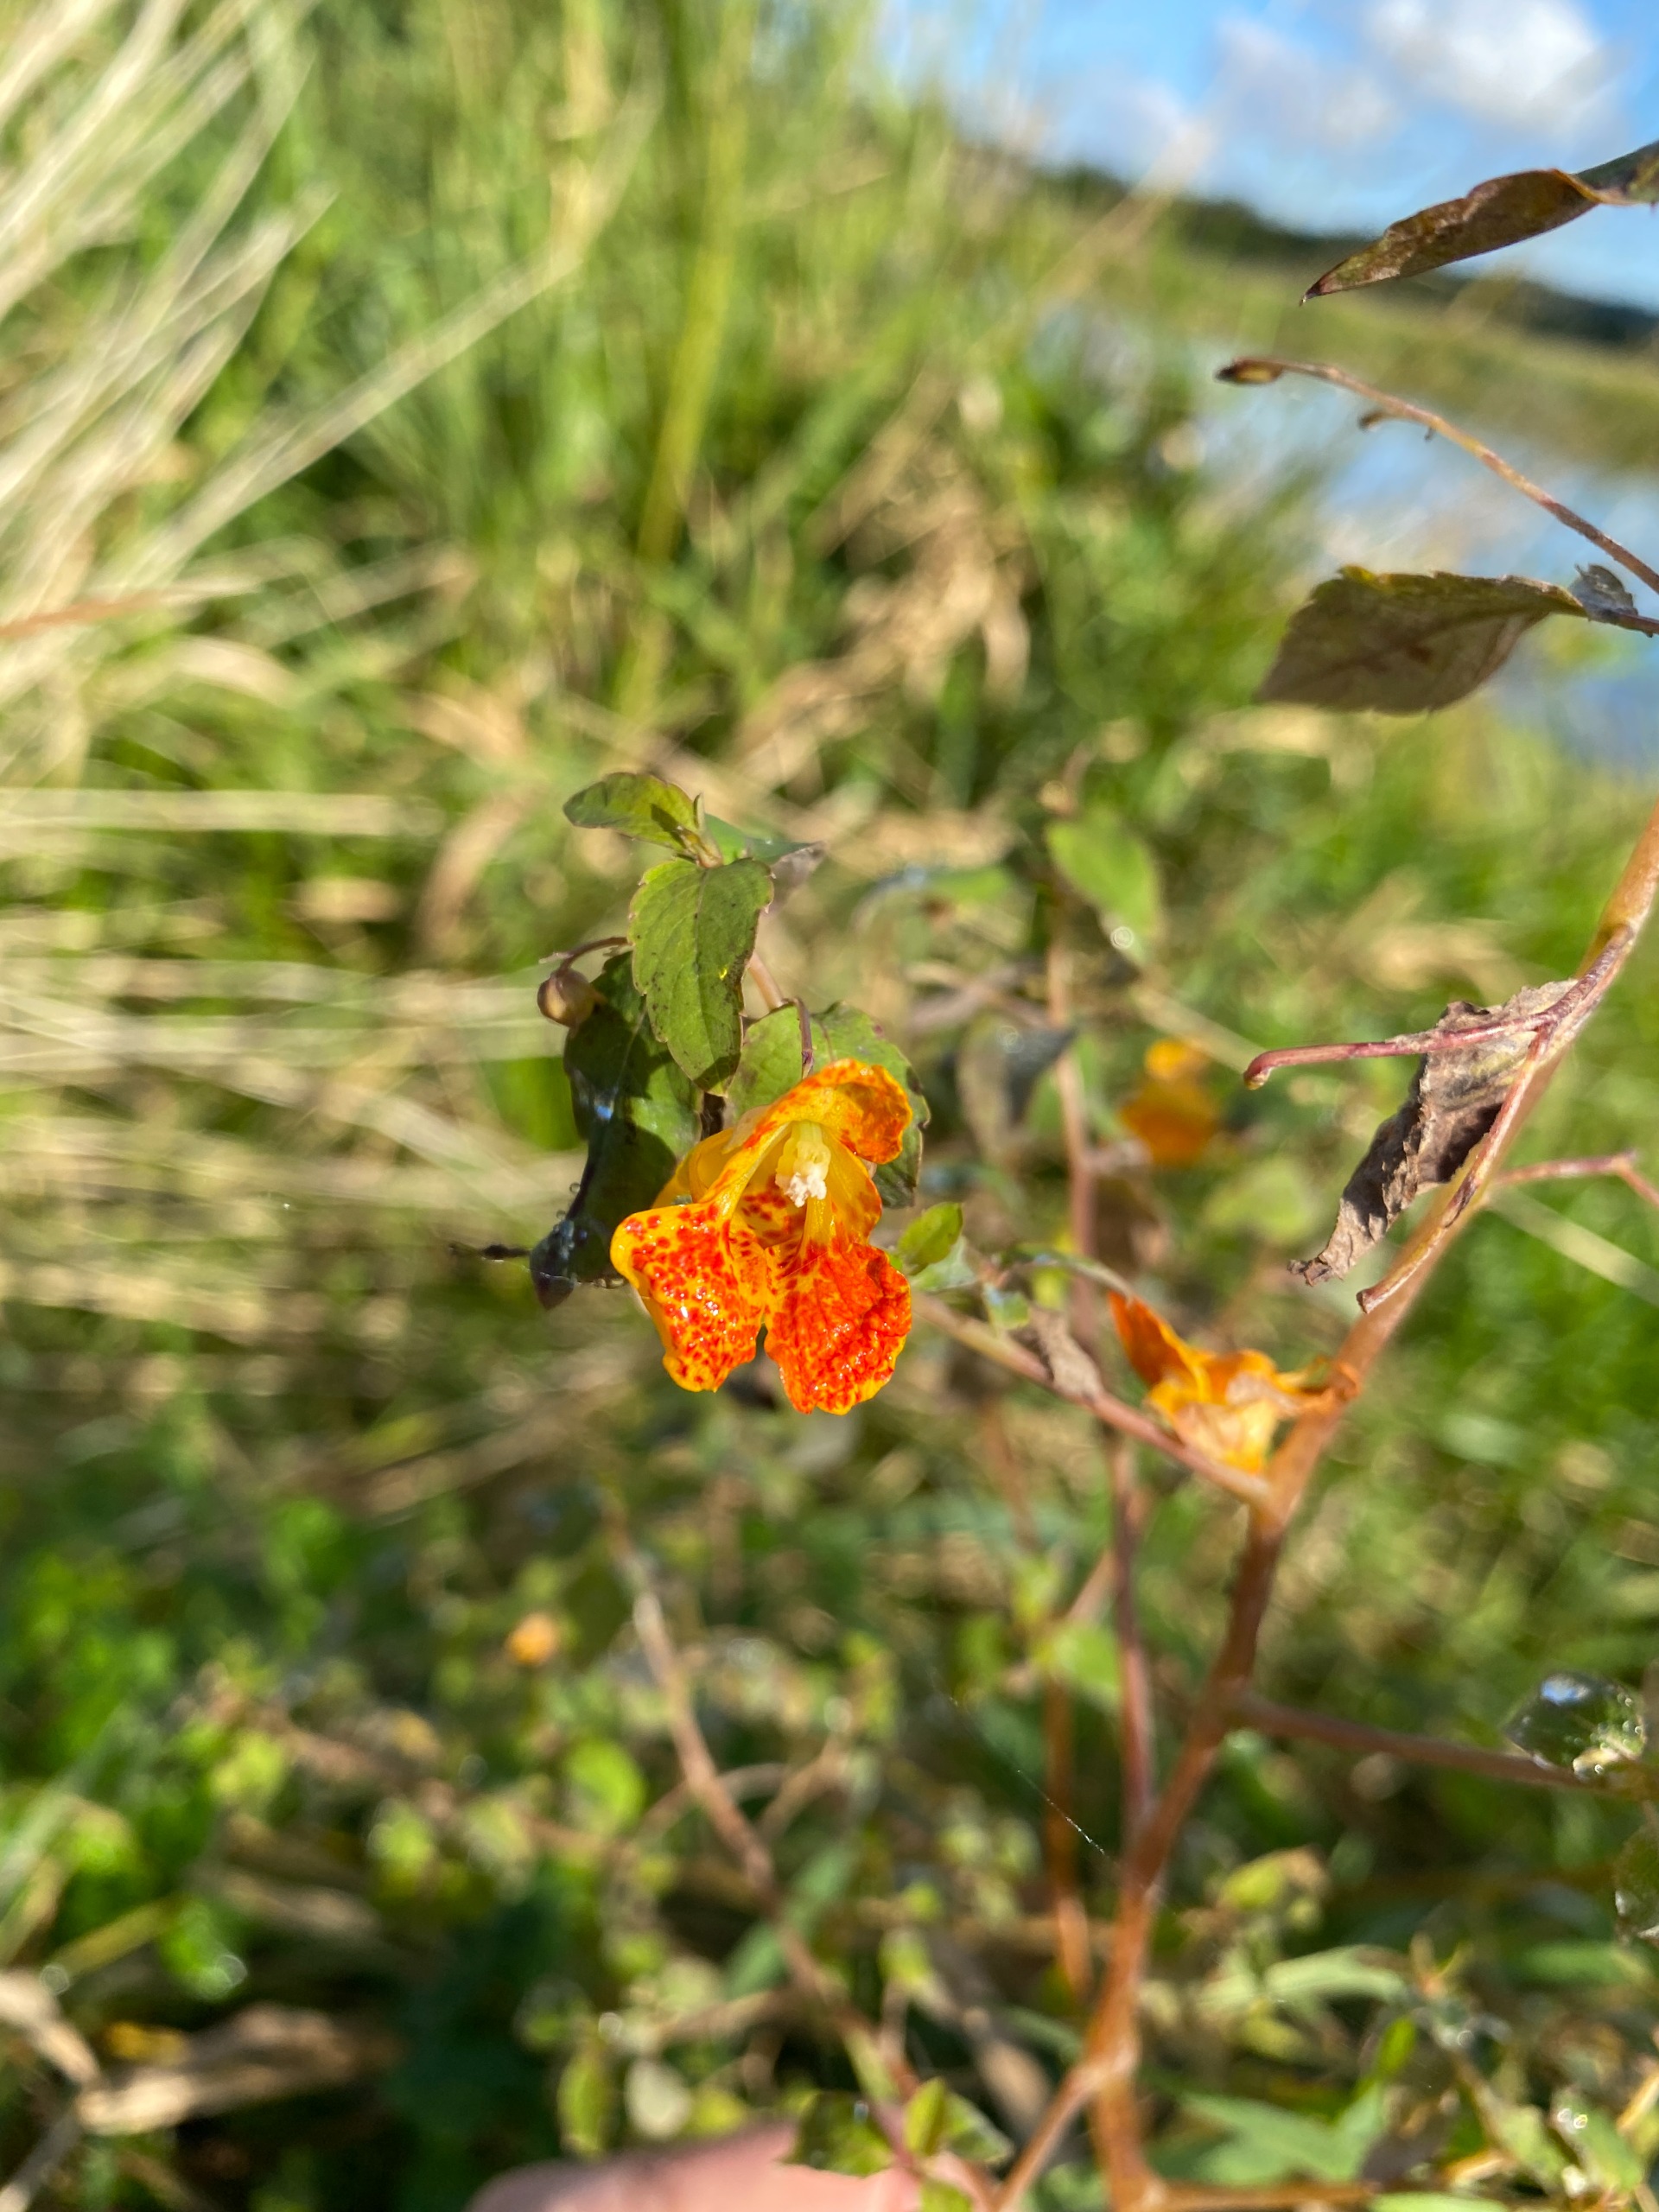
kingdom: Plantae
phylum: Tracheophyta
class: Magnoliopsida
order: Ericales
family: Balsaminaceae
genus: Impatiens
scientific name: Impatiens capensis
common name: Orange-balsamin
